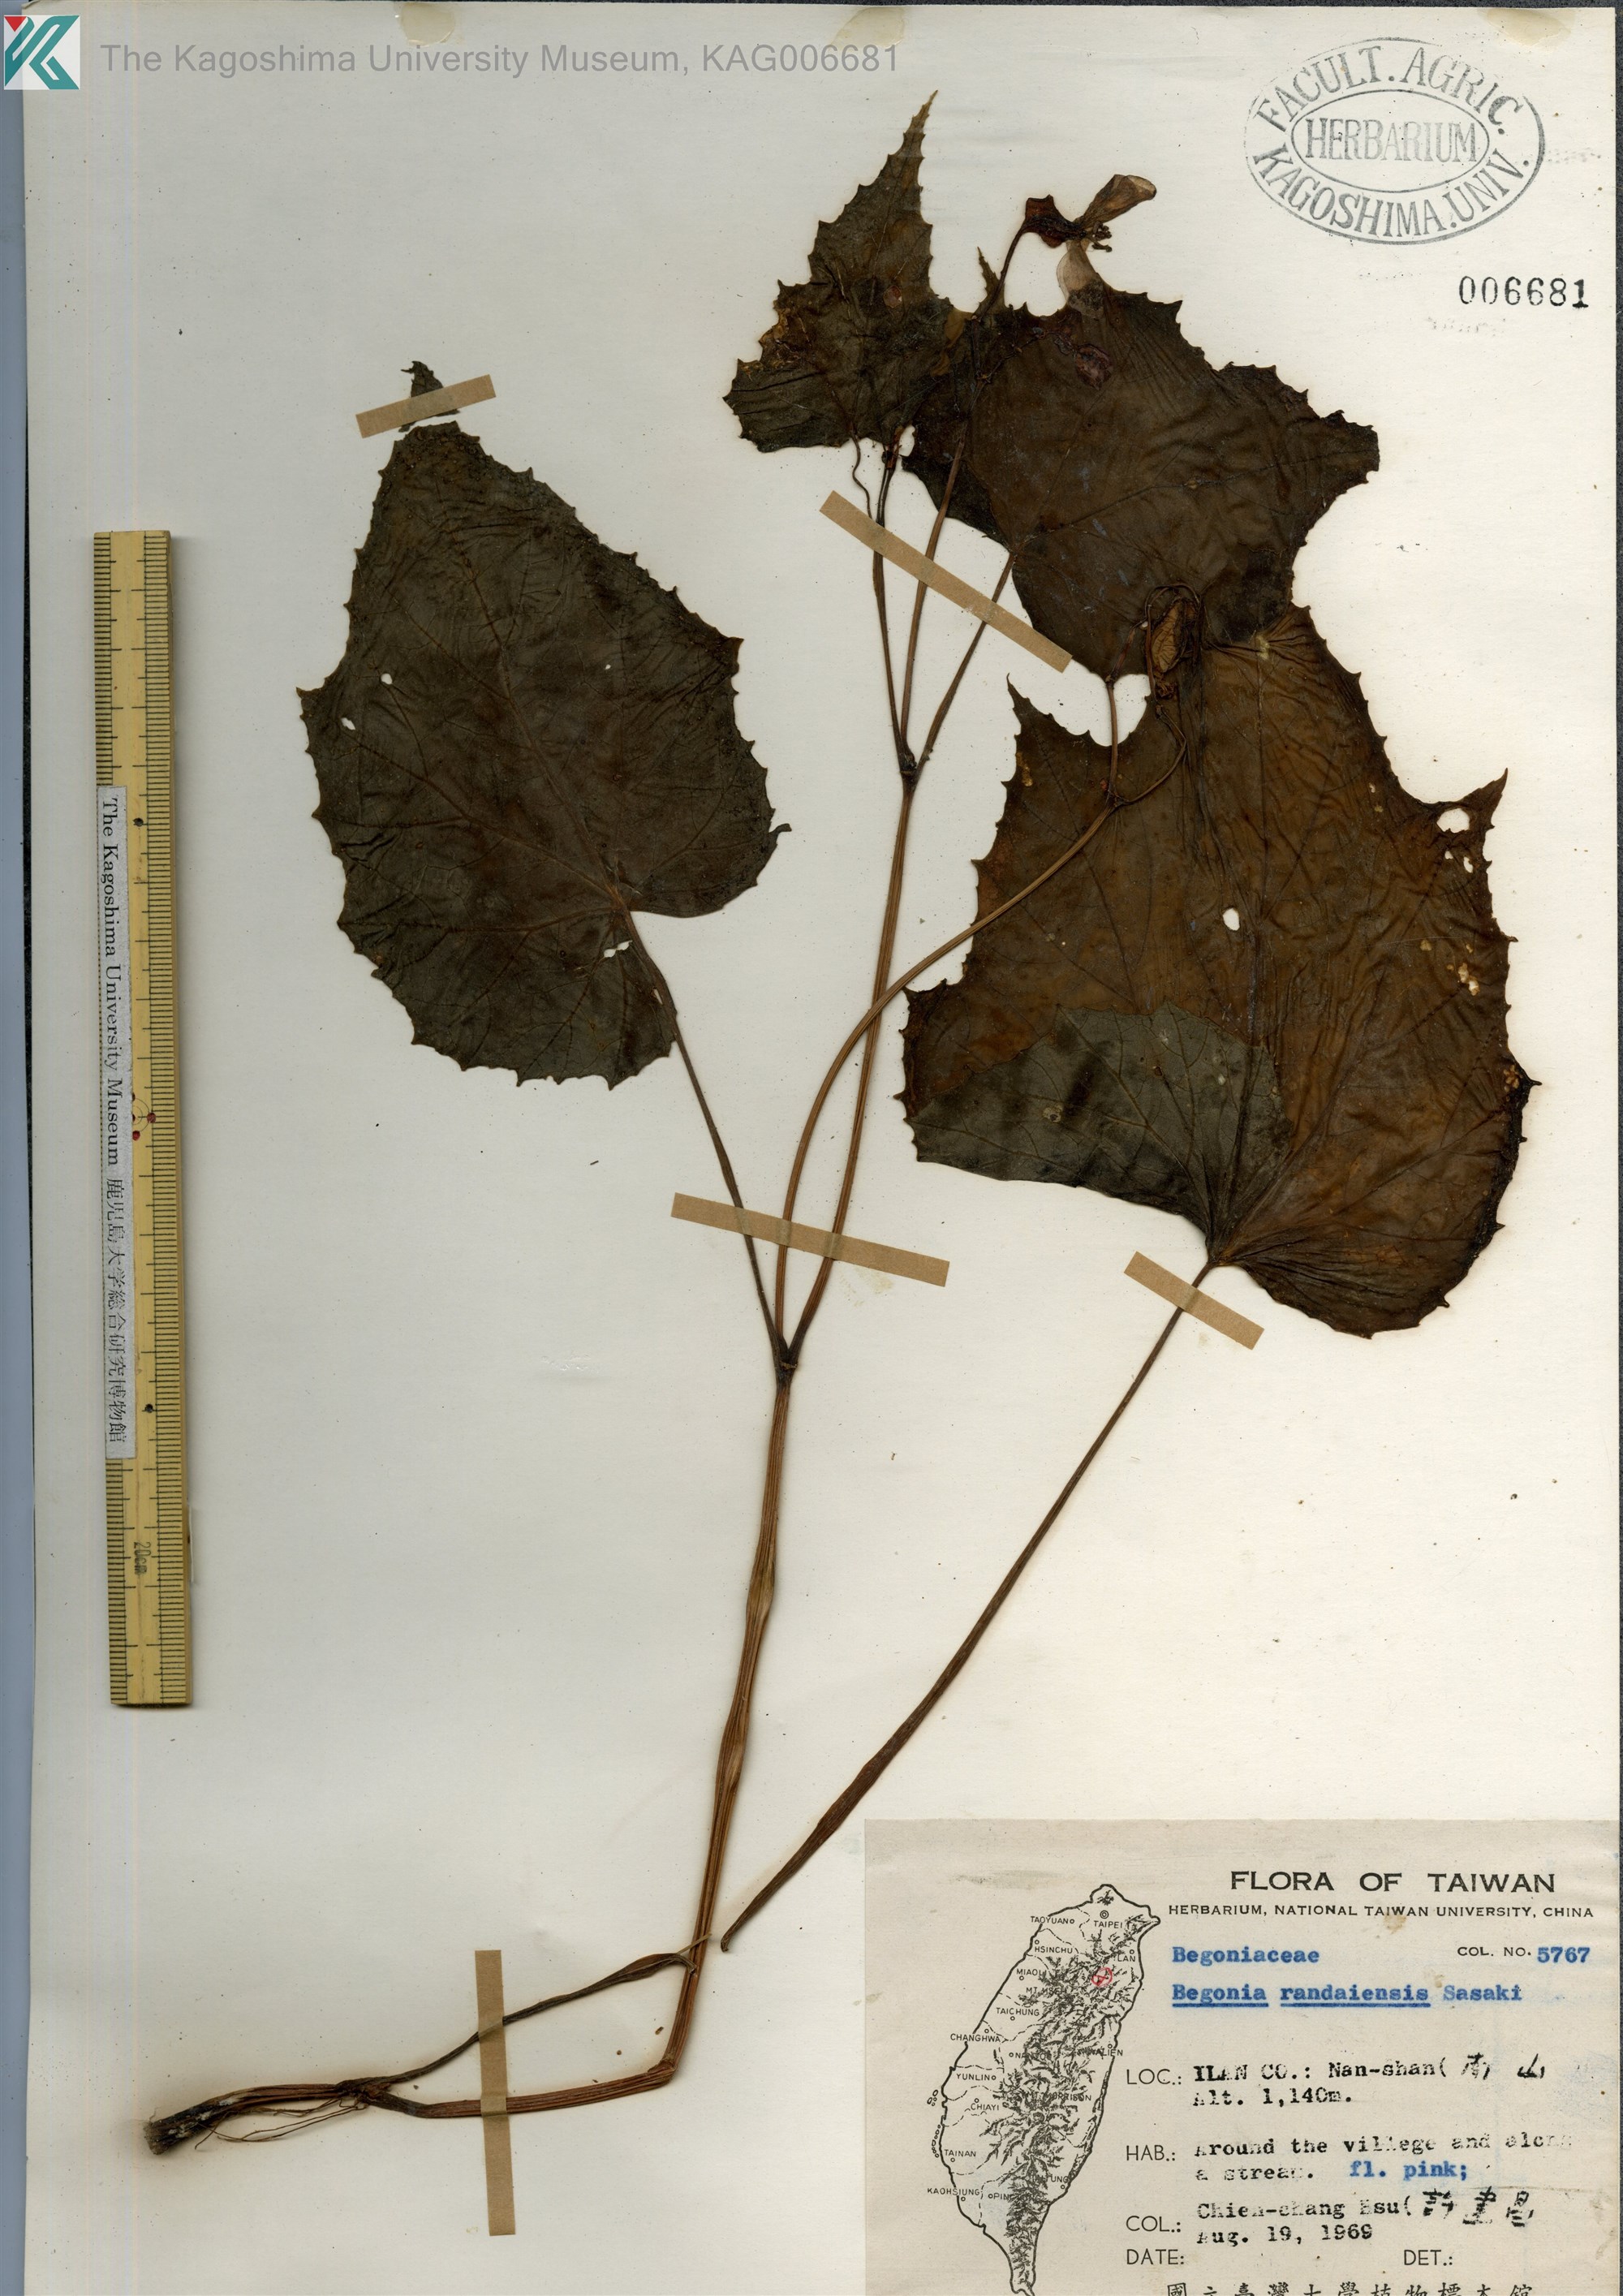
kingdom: Plantae
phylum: Tracheophyta
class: Magnoliopsida
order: Cucurbitales
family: Begoniaceae
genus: Begonia
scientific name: Begonia randaiensis
